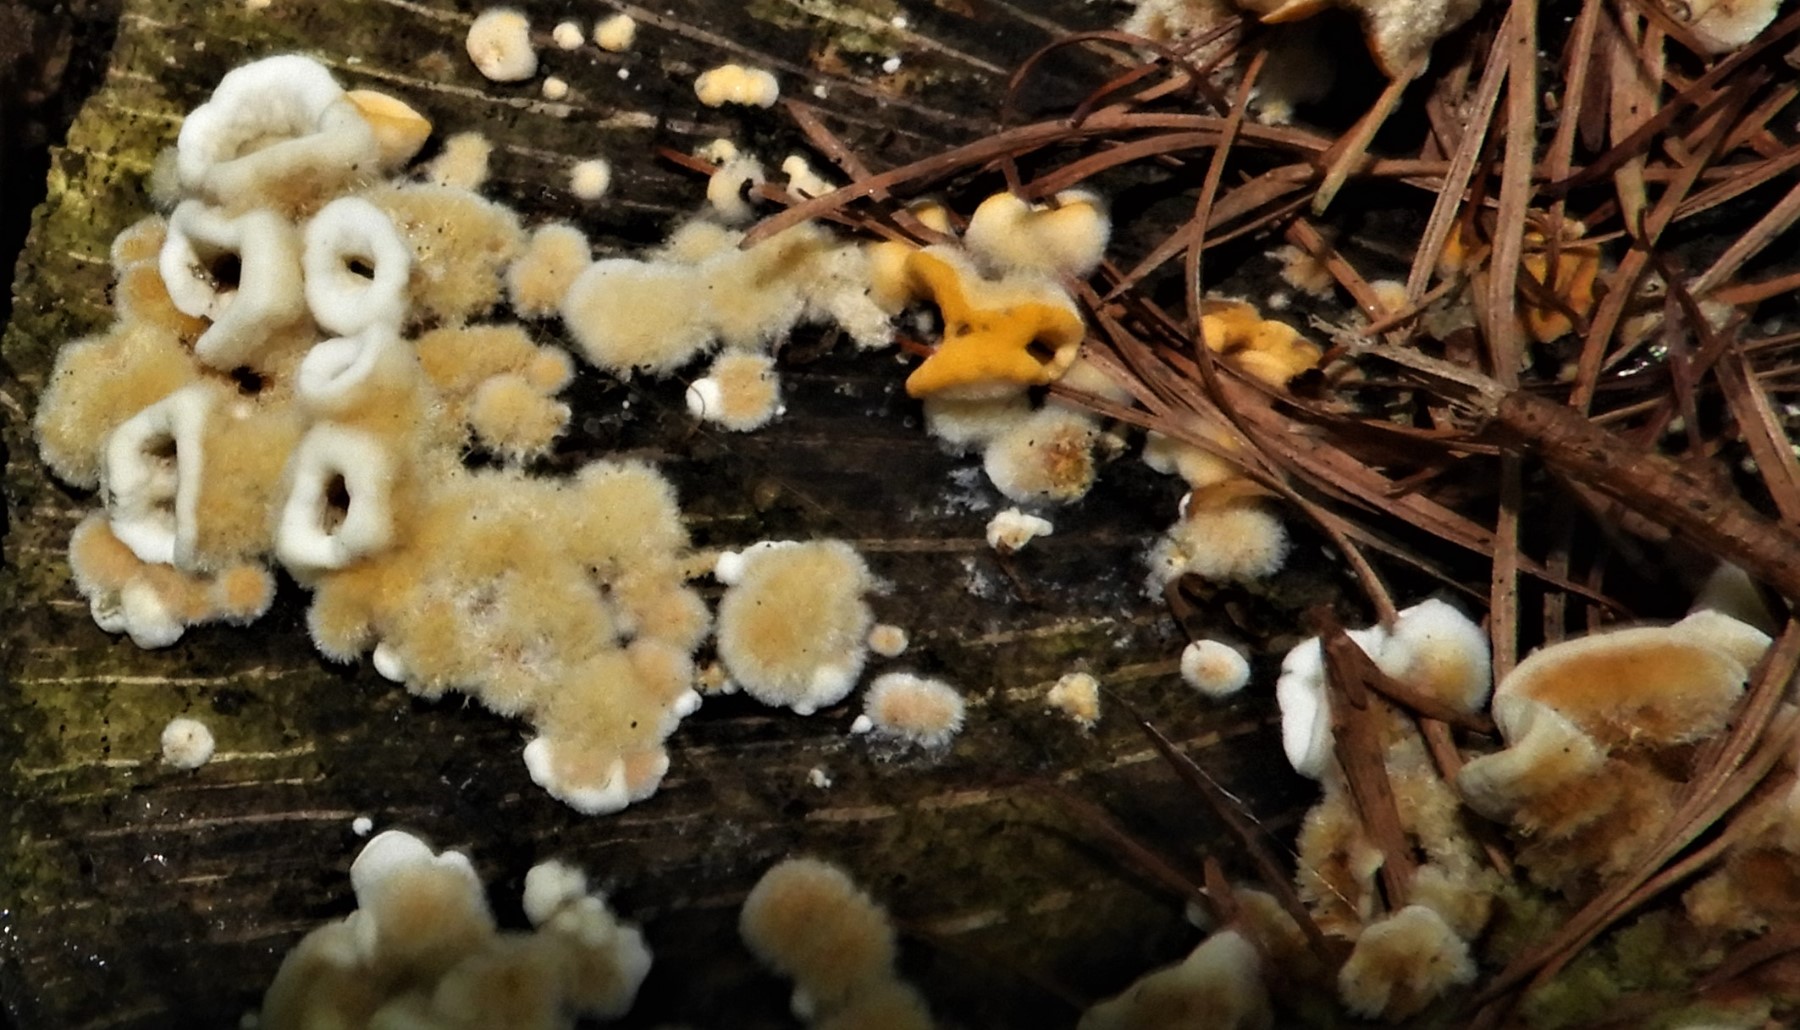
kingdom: Fungi
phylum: Basidiomycota
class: Agaricomycetes
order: Russulales
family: Stereaceae
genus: Stereum
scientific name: Stereum hirsutum
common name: håret lædersvamp
